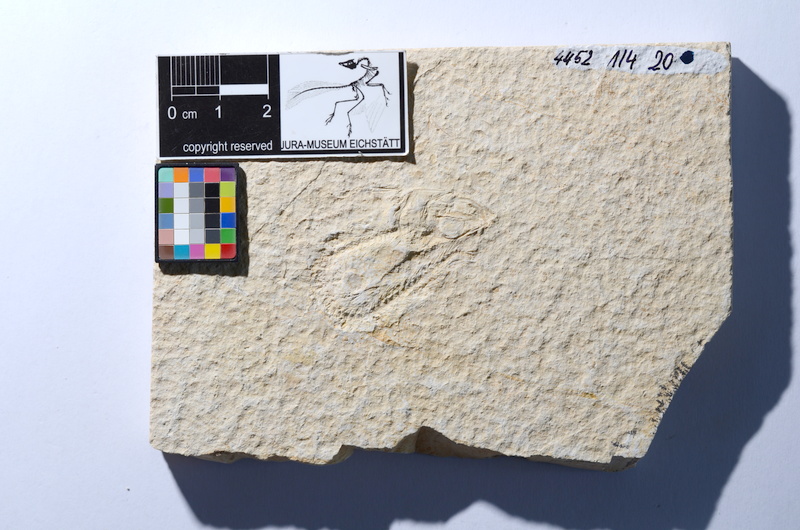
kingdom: Animalia
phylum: Chordata
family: Ascalaboidae
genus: Tharsis
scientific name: Tharsis dubius
